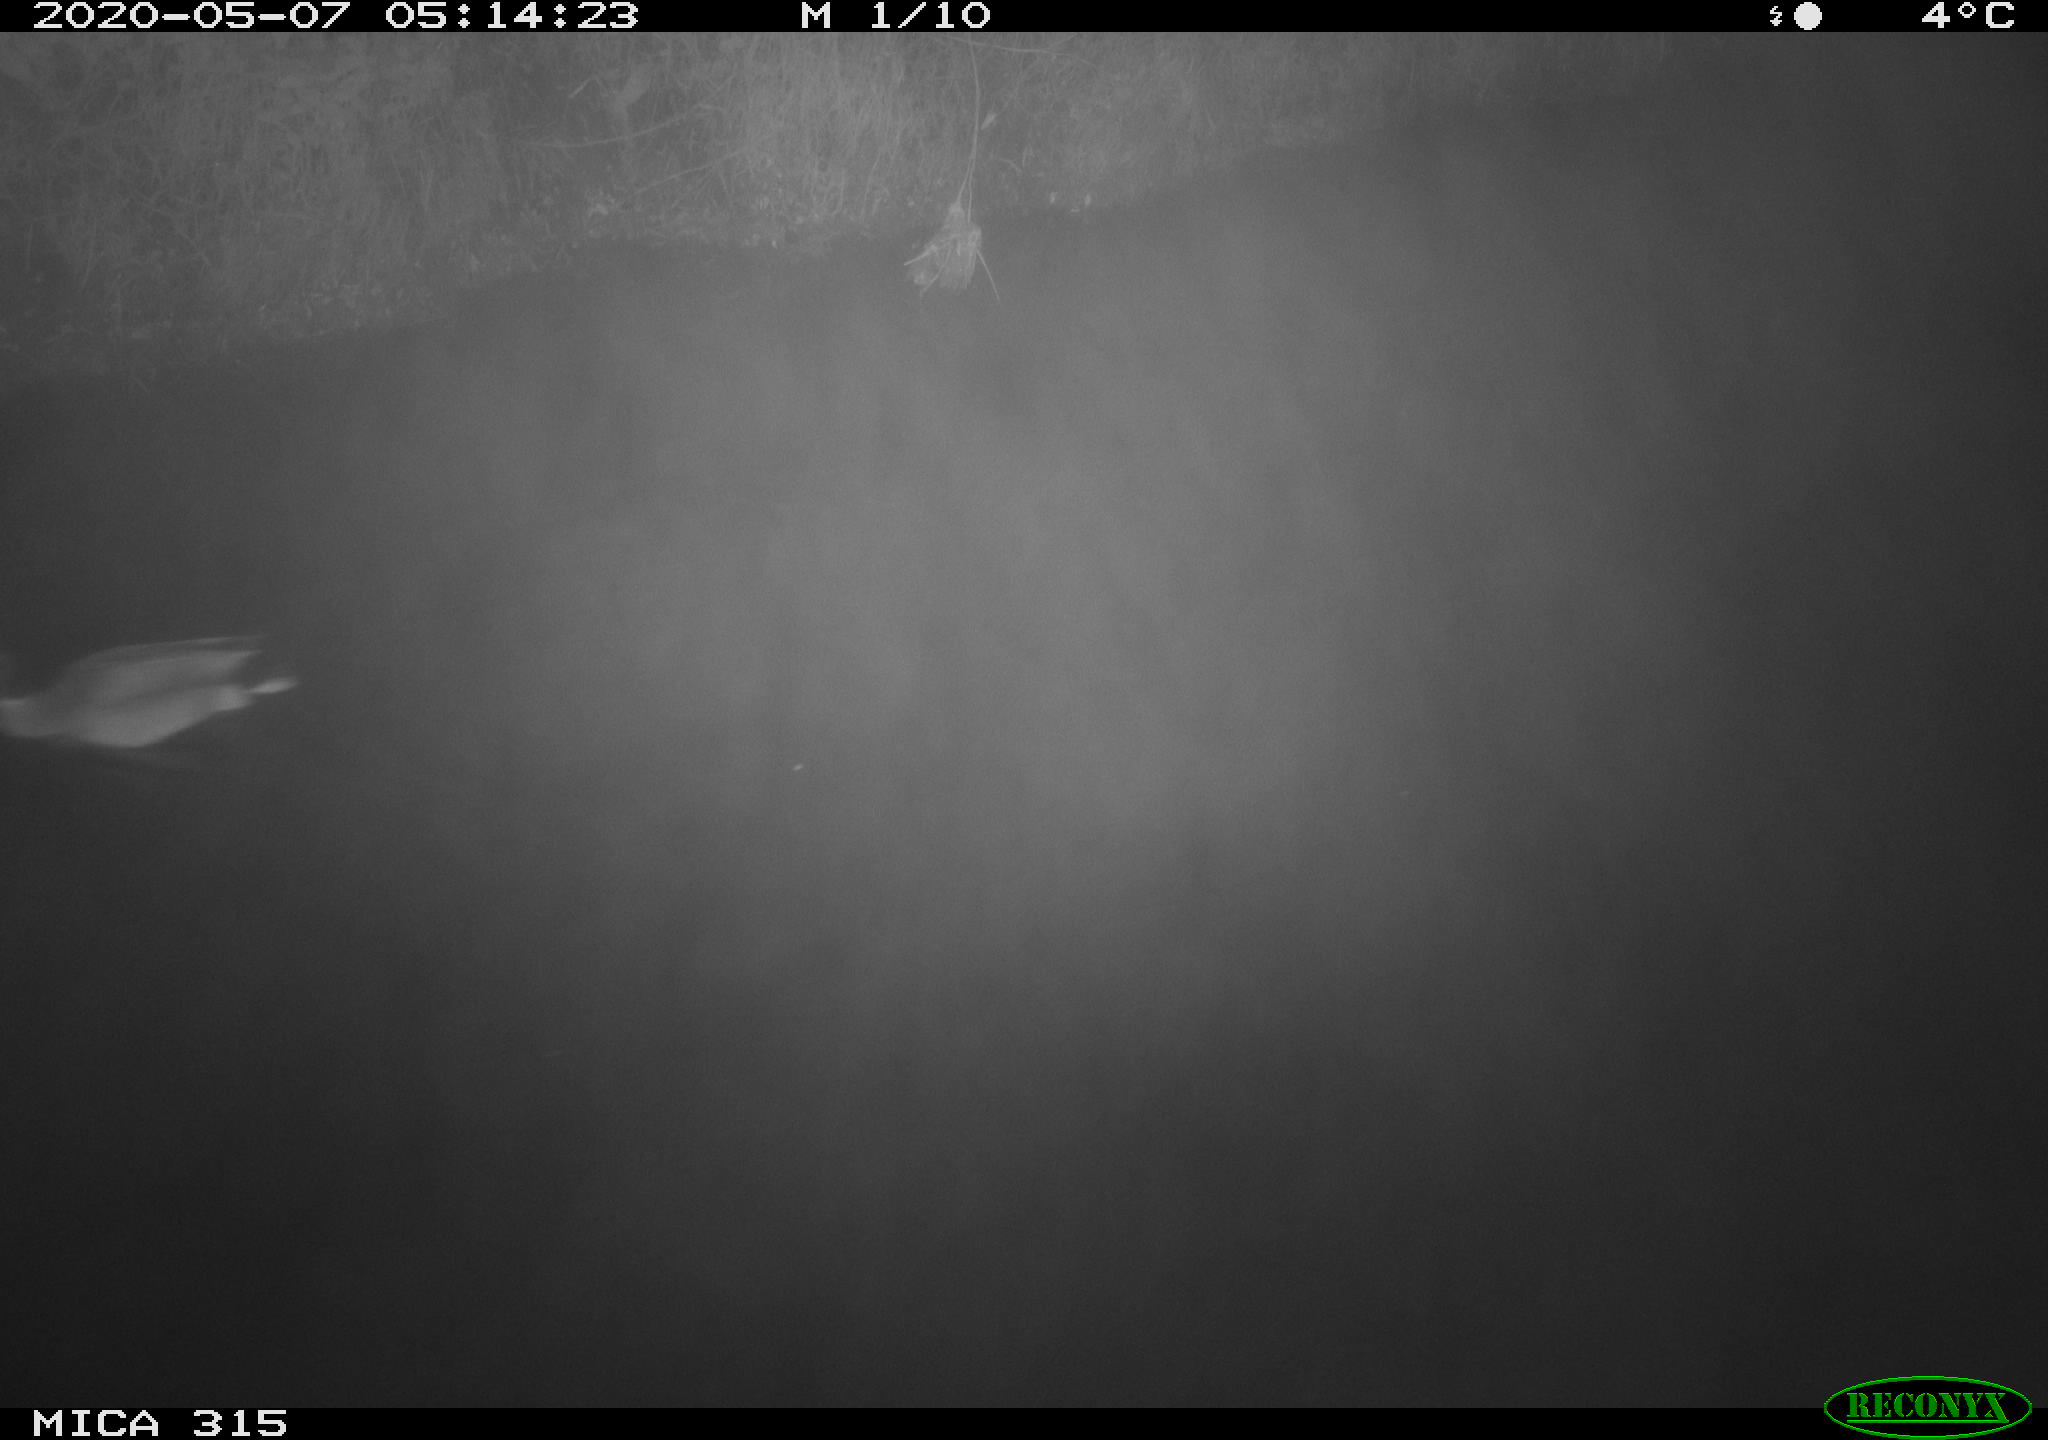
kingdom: Animalia
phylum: Chordata
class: Aves
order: Anseriformes
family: Anatidae
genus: Anas
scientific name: Anas platyrhynchos
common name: Mallard
